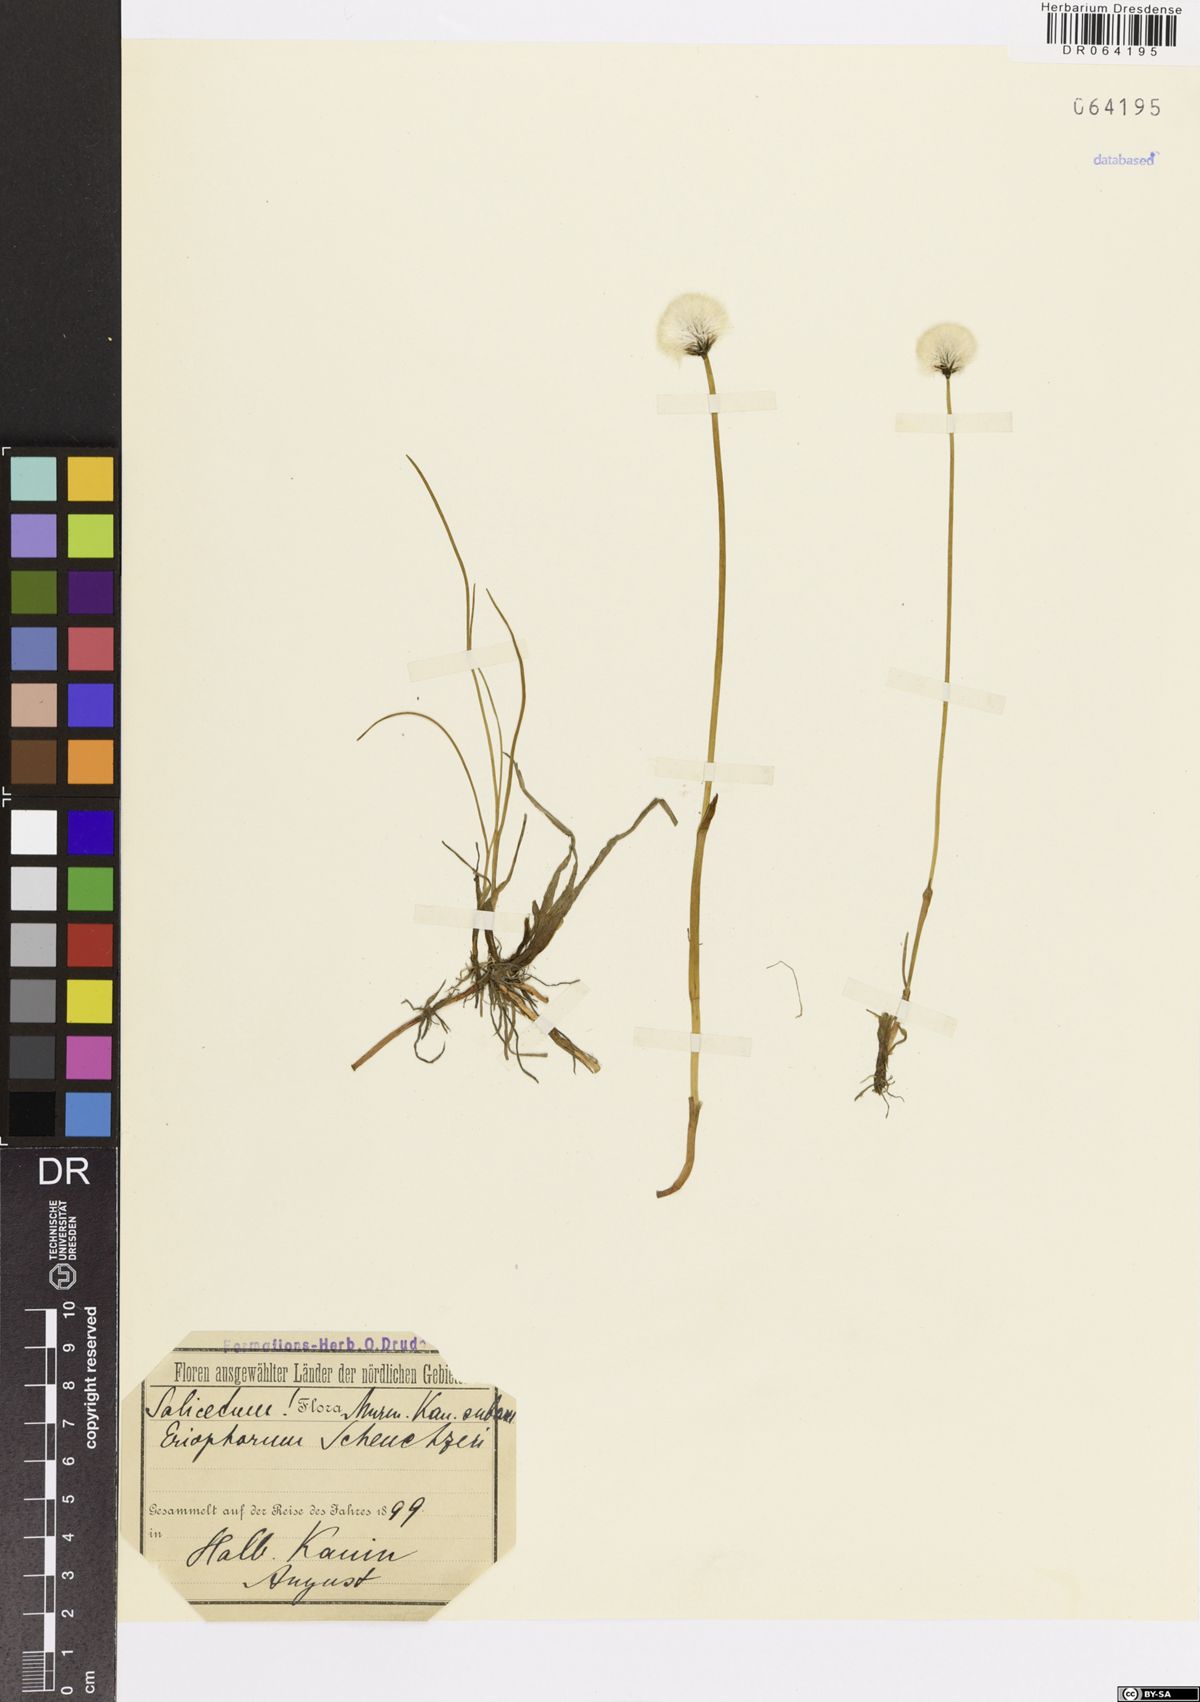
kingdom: Plantae
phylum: Tracheophyta
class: Liliopsida
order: Poales
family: Cyperaceae
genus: Eriophorum
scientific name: Eriophorum scheuchzeri
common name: Scheuchzer's cottongrass
